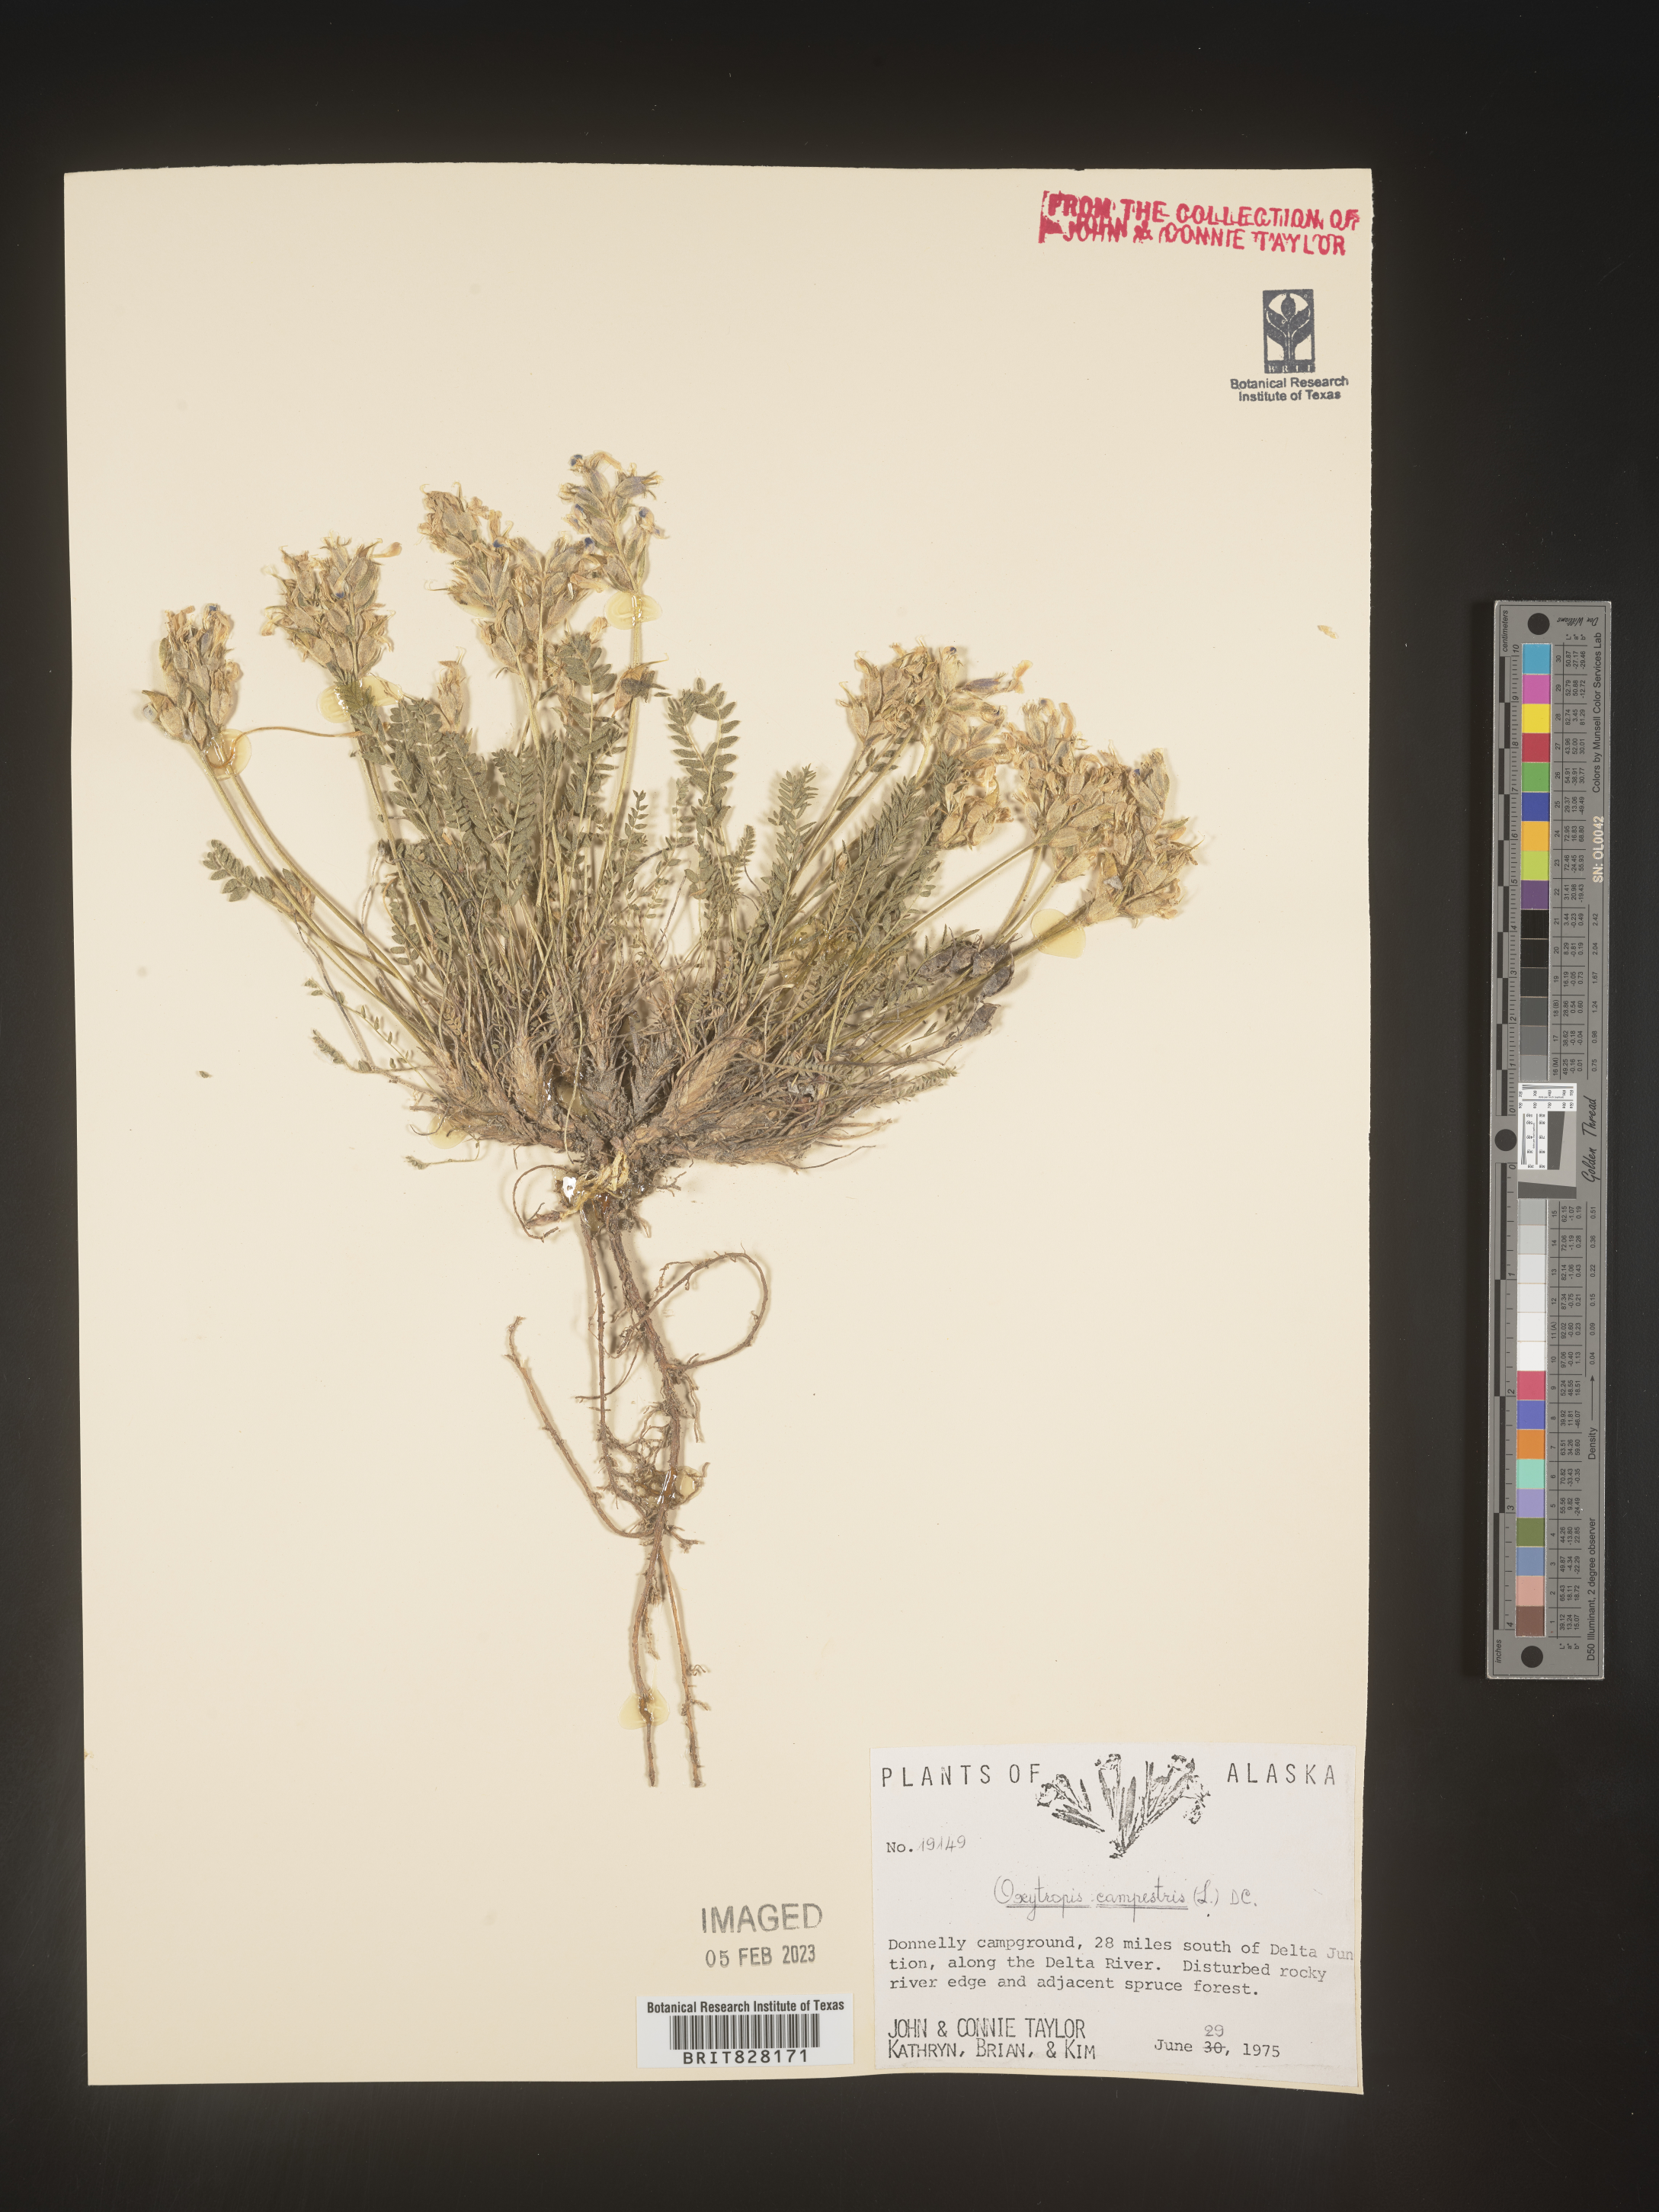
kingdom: Plantae
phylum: Tracheophyta
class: Magnoliopsida
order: Fabales
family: Fabaceae
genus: Oxytropis
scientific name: Oxytropis campestris
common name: Field locoweed
